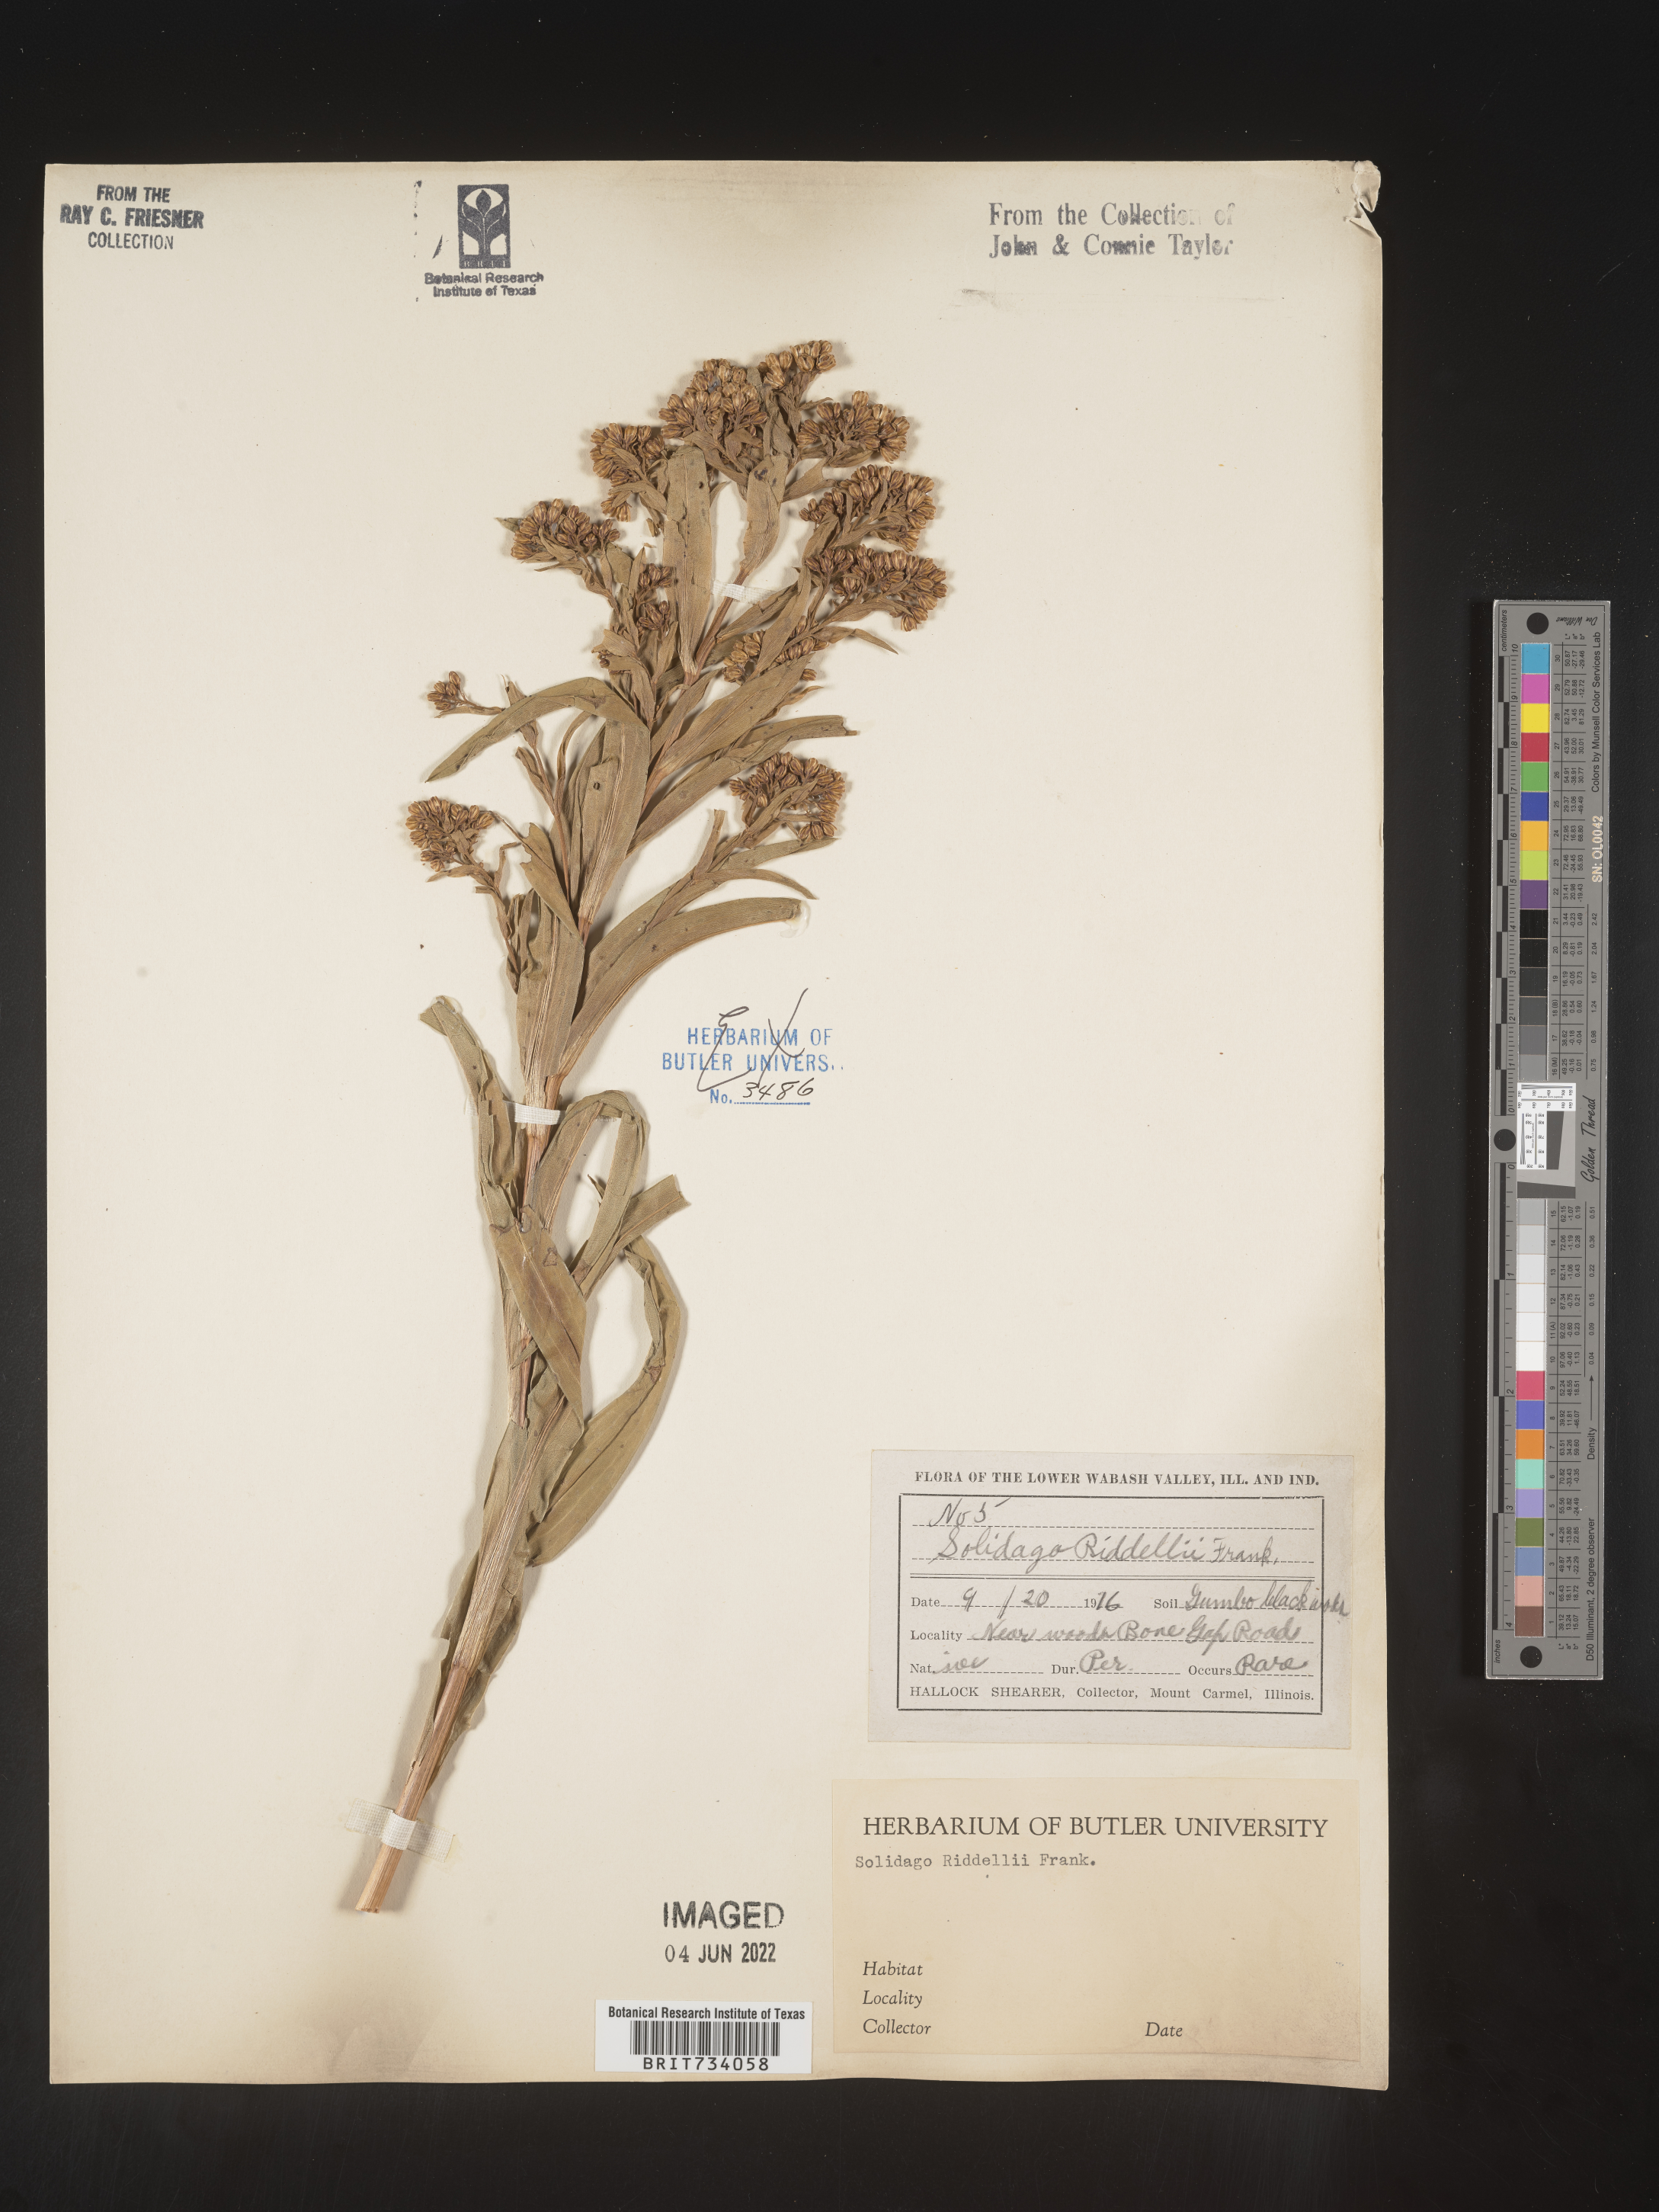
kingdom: Plantae
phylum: Tracheophyta
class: Magnoliopsida
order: Asterales
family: Asteraceae
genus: Solidago
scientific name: Solidago riddellii
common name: Riddell's goldenrod
